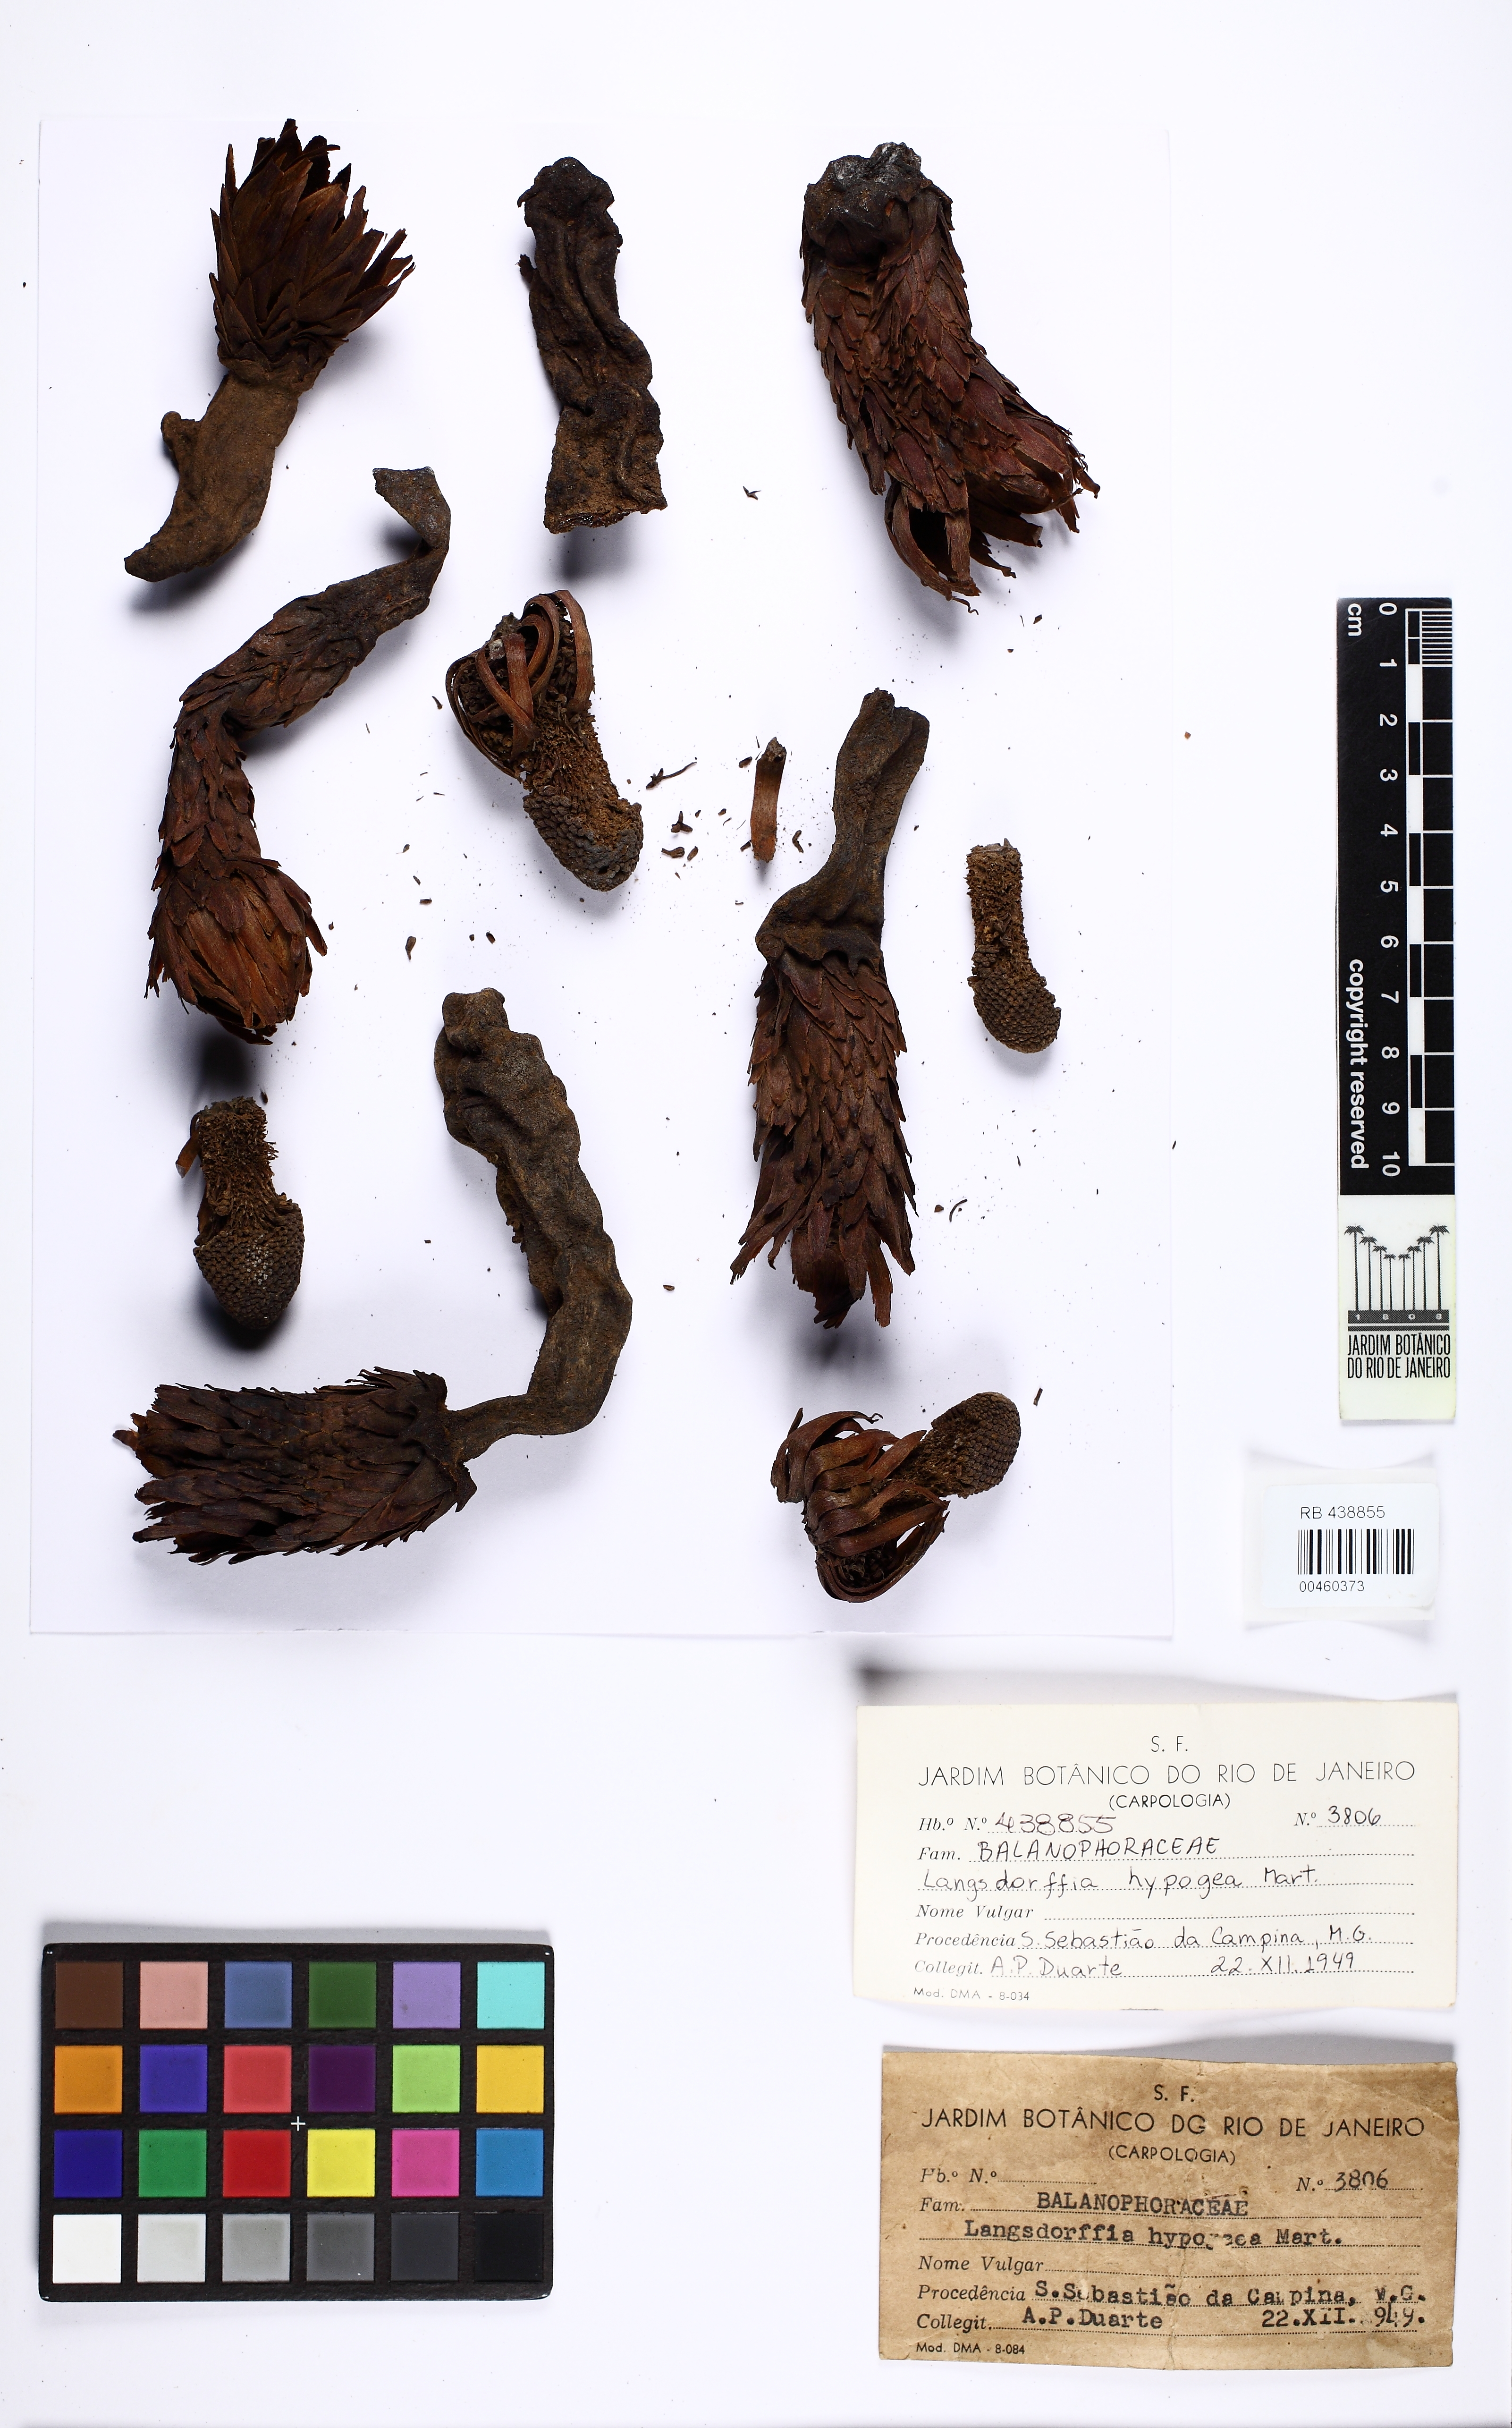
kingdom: Plantae
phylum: Tracheophyta
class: Magnoliopsida
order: Santalales
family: Balanophoraceae
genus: Langsdorffia
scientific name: Langsdorffia hypogaea
